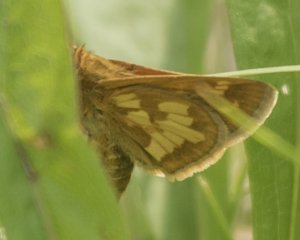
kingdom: Animalia
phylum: Arthropoda
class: Insecta
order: Lepidoptera
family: Hesperiidae
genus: Polites
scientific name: Polites coras
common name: Peck's Skipper
